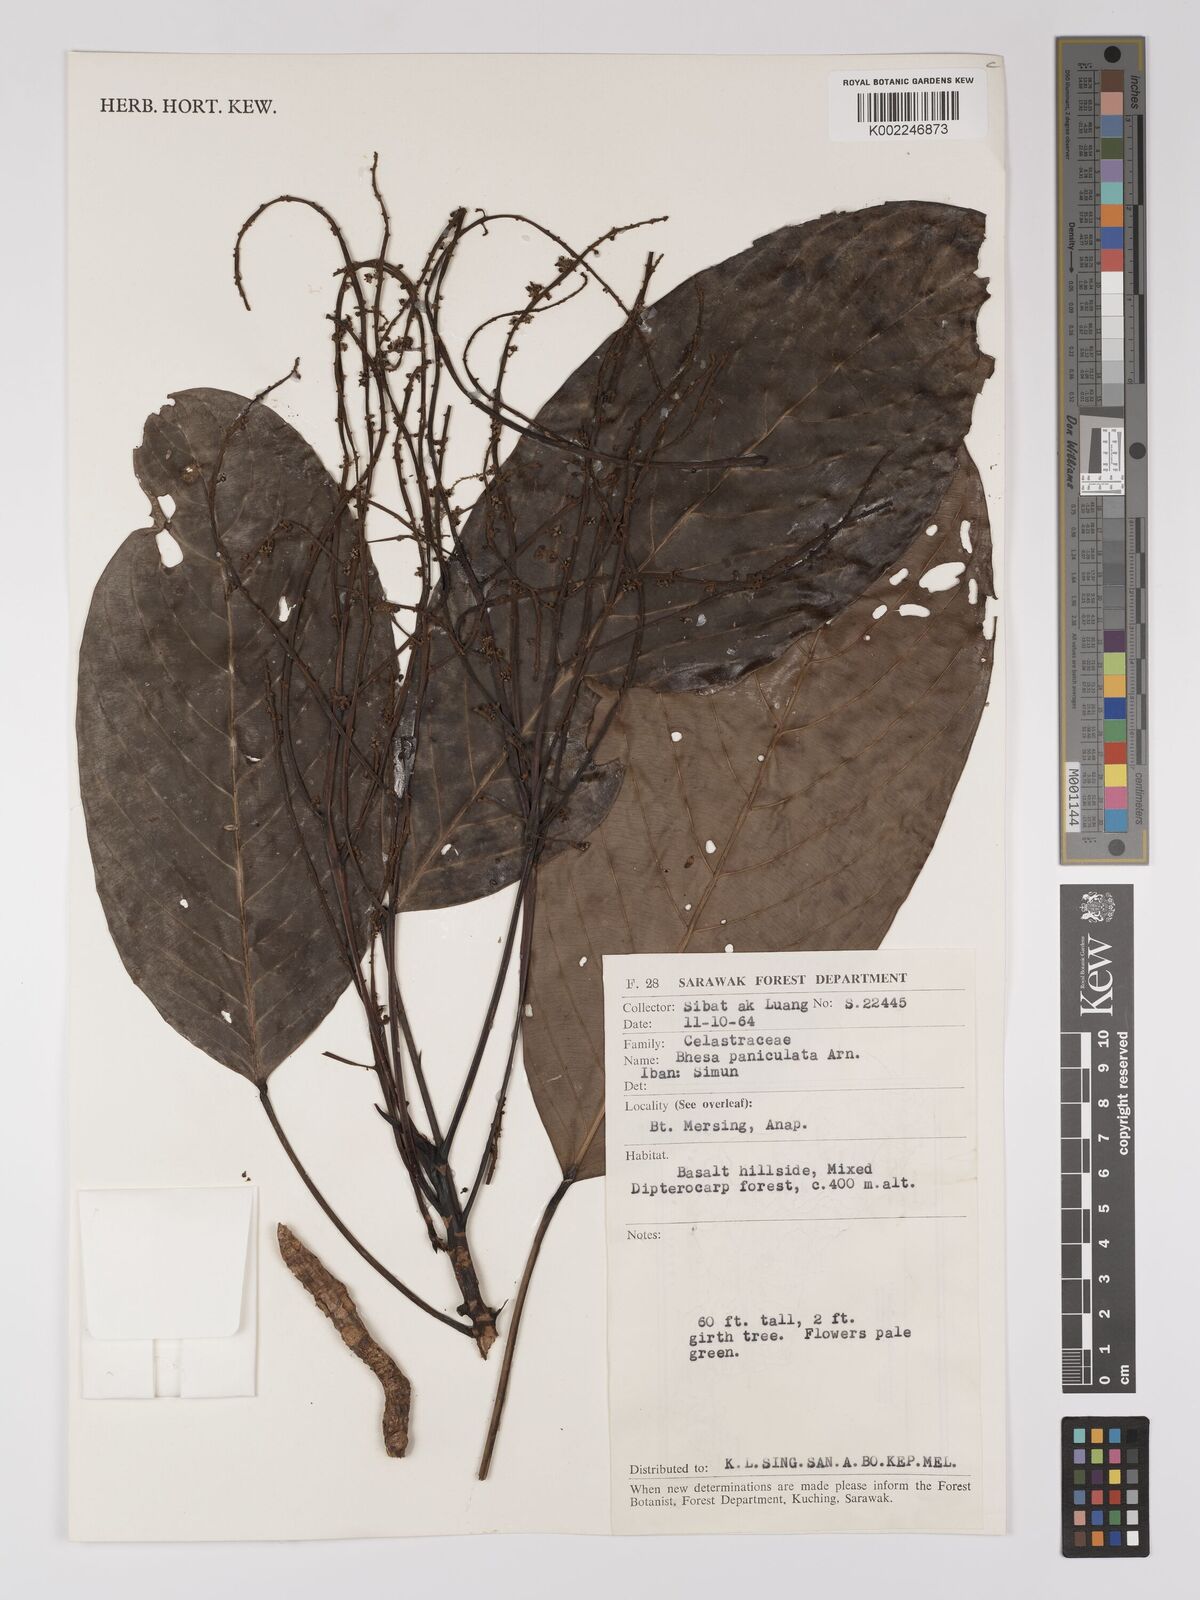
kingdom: Plantae
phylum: Tracheophyta
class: Magnoliopsida
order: Malpighiales
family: Centroplacaceae
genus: Bhesa
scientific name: Bhesa paniculata
